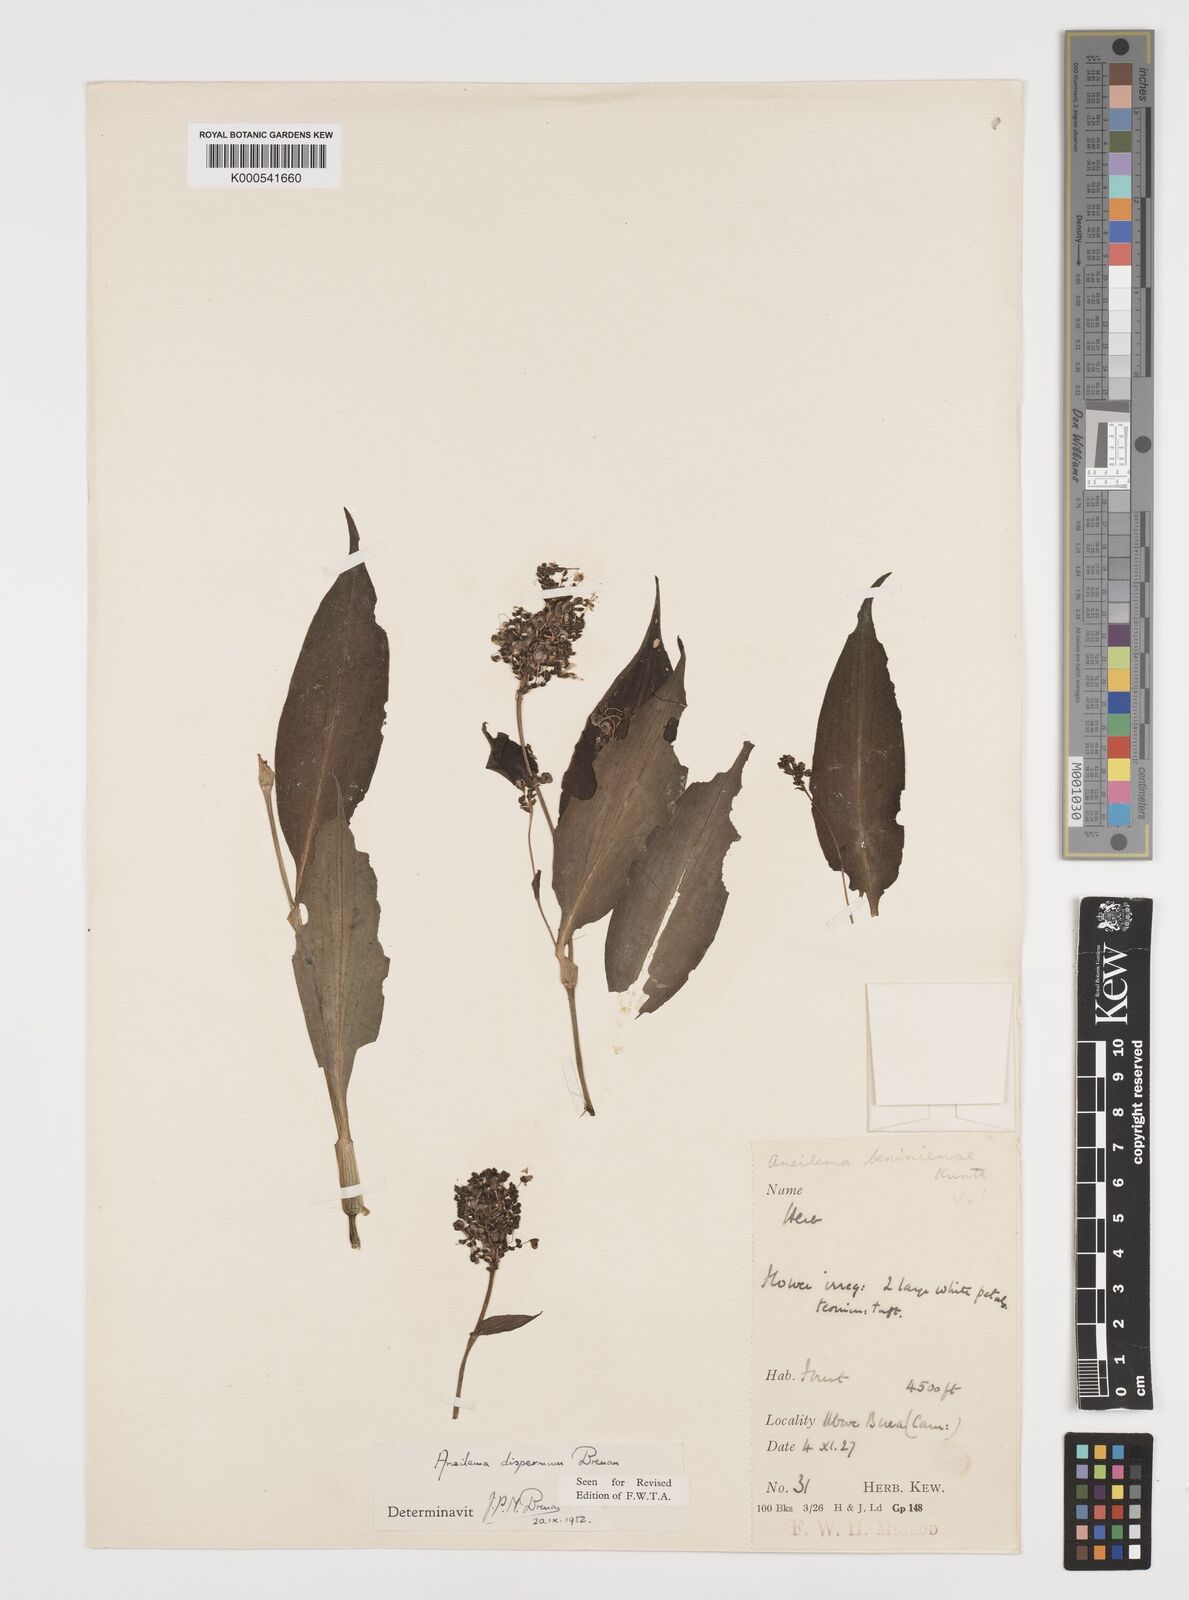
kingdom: Plantae
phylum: Tracheophyta
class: Liliopsida
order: Commelinales
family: Commelinaceae
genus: Aneilema
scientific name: Aneilema dispermum
